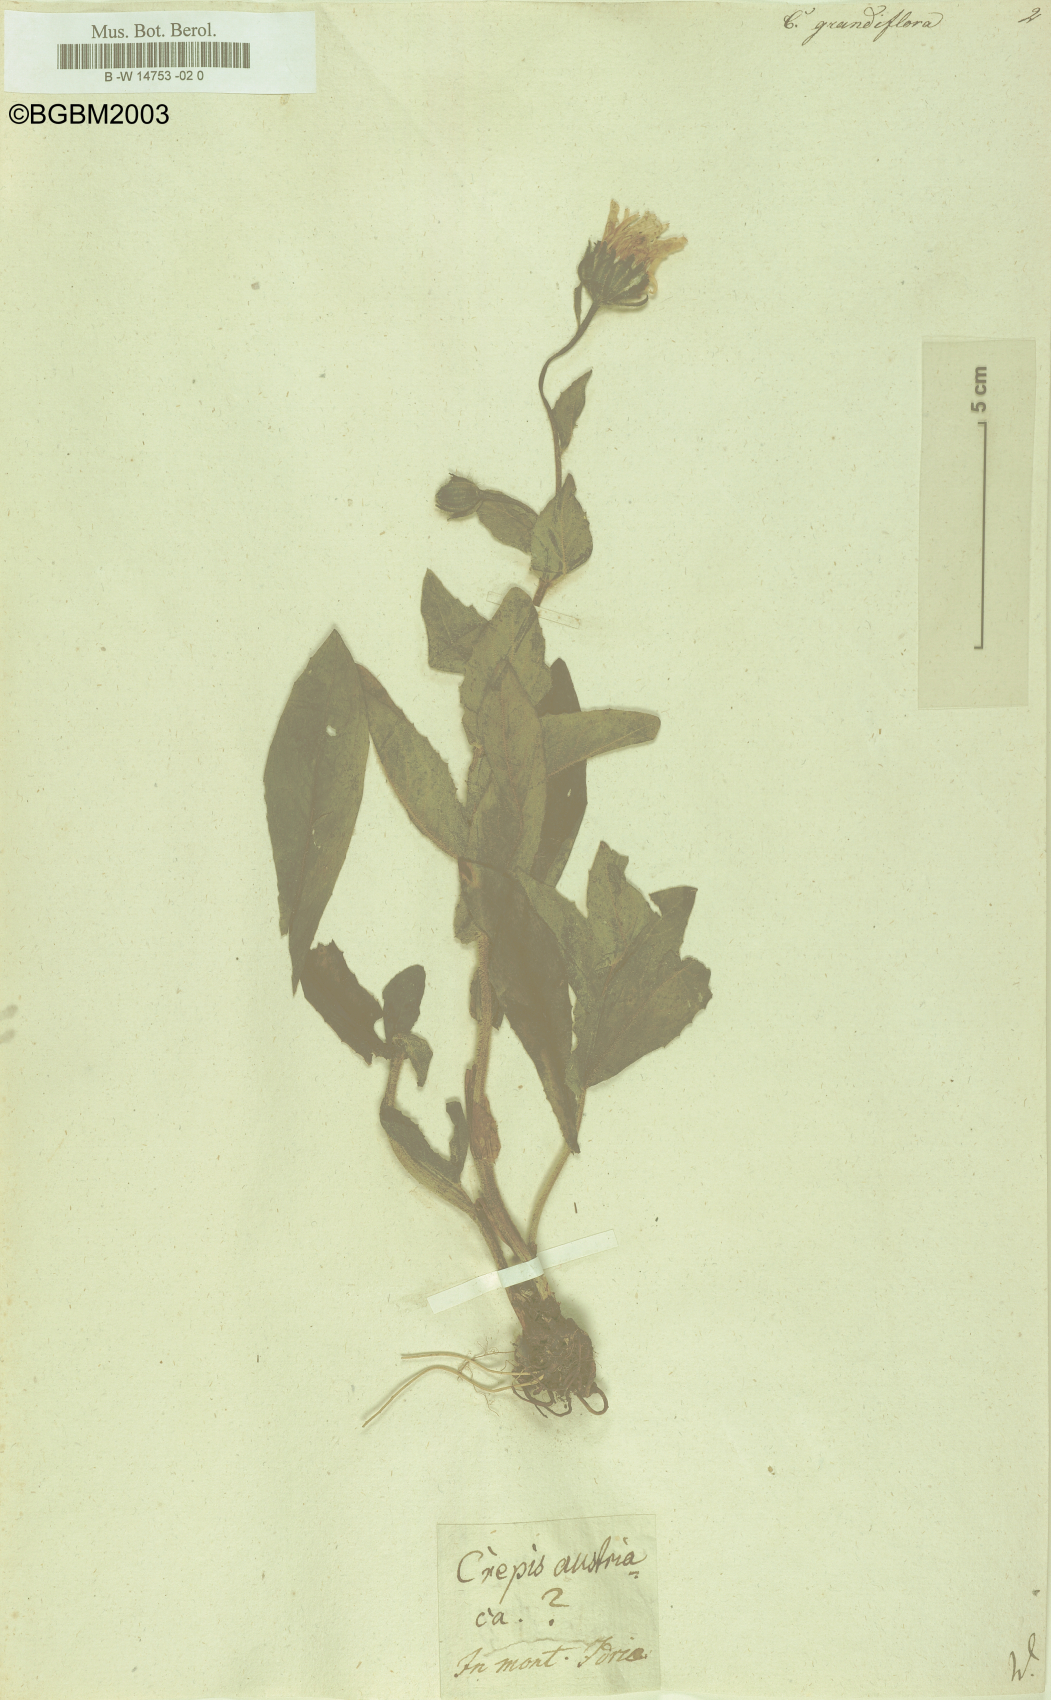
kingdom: Plantae
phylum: Tracheophyta
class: Magnoliopsida
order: Asterales
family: Asteraceae
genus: Crepis
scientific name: Crepis pyrenaica
